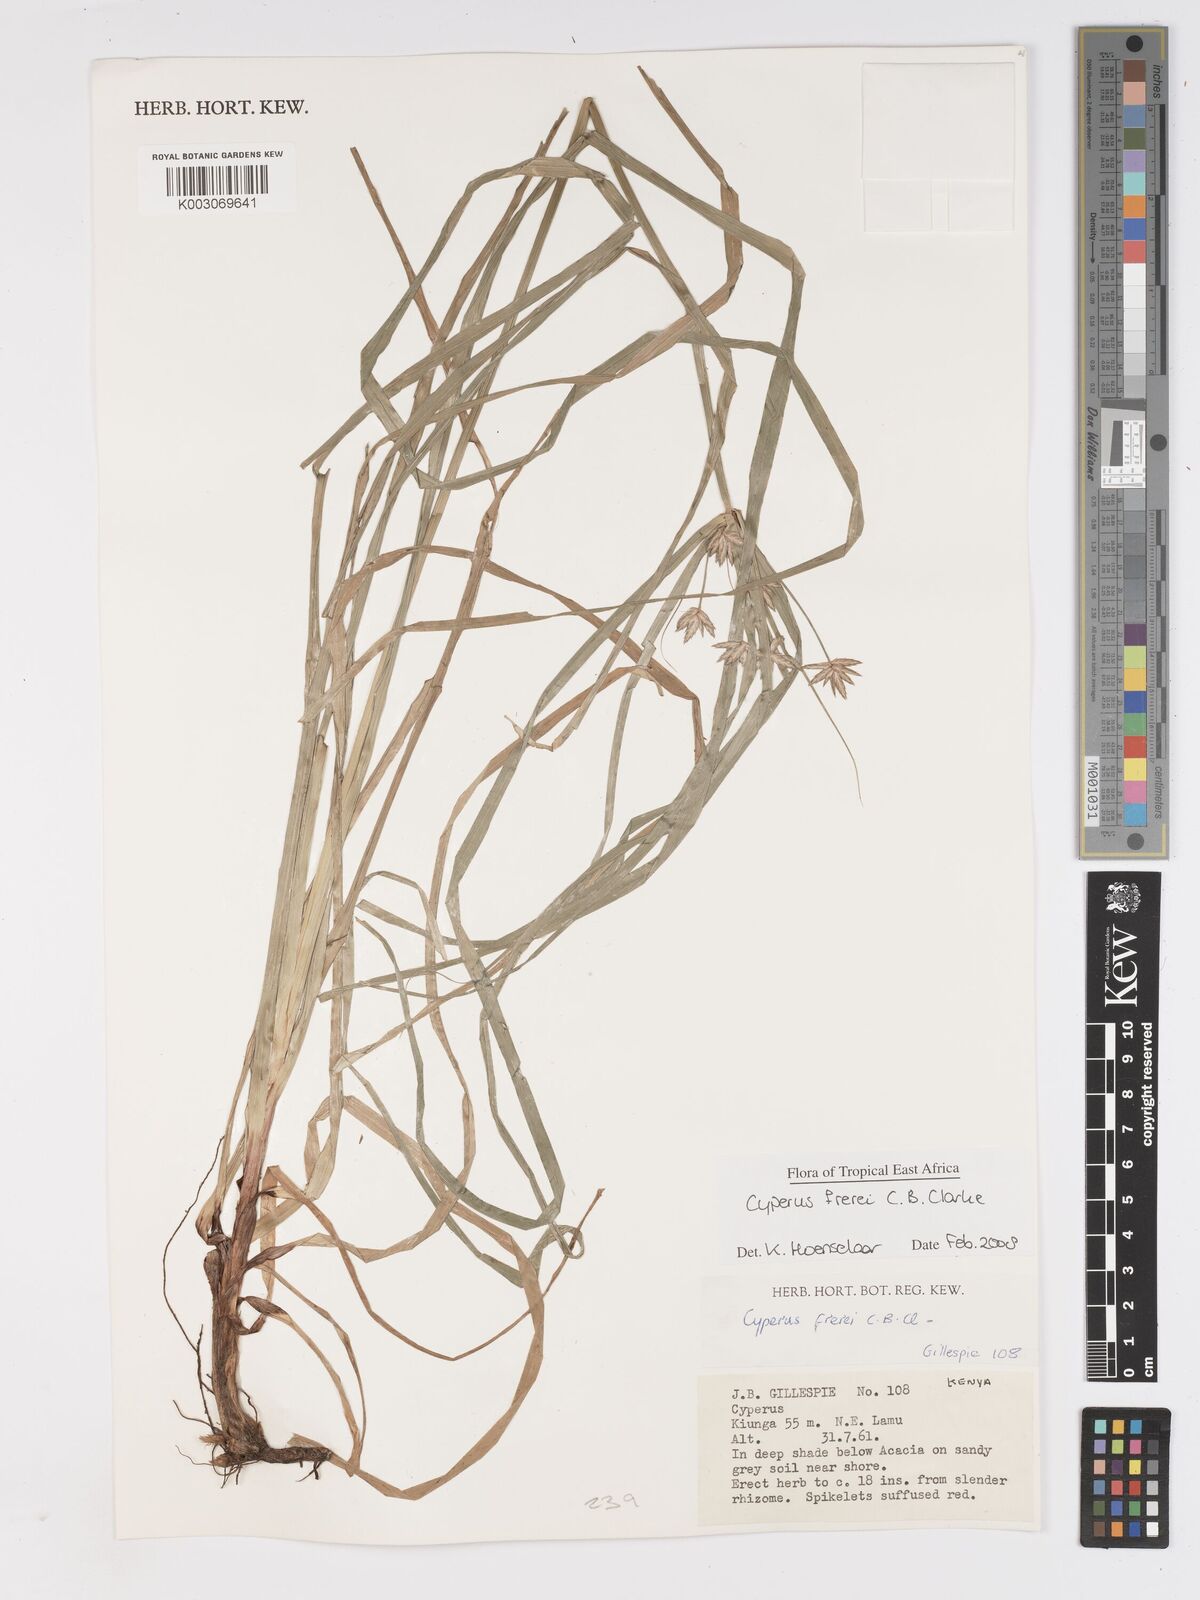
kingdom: Plantae
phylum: Tracheophyta
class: Liliopsida
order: Poales
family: Cyperaceae
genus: Cyperus
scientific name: Cyperus crassipes
